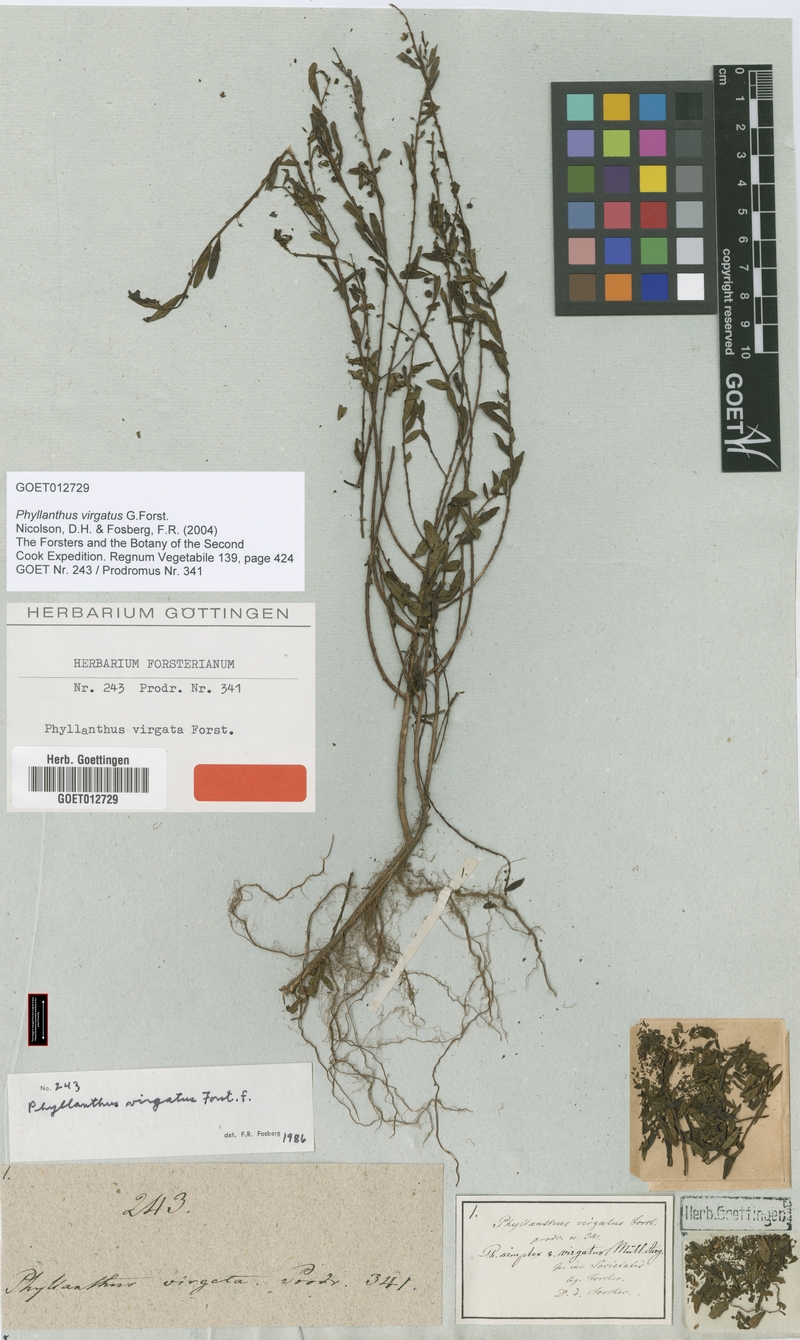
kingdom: Plantae
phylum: Tracheophyta
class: Magnoliopsida
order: Malpighiales
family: Phyllanthaceae
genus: Phyllanthus
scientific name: Phyllanthus virgatus
